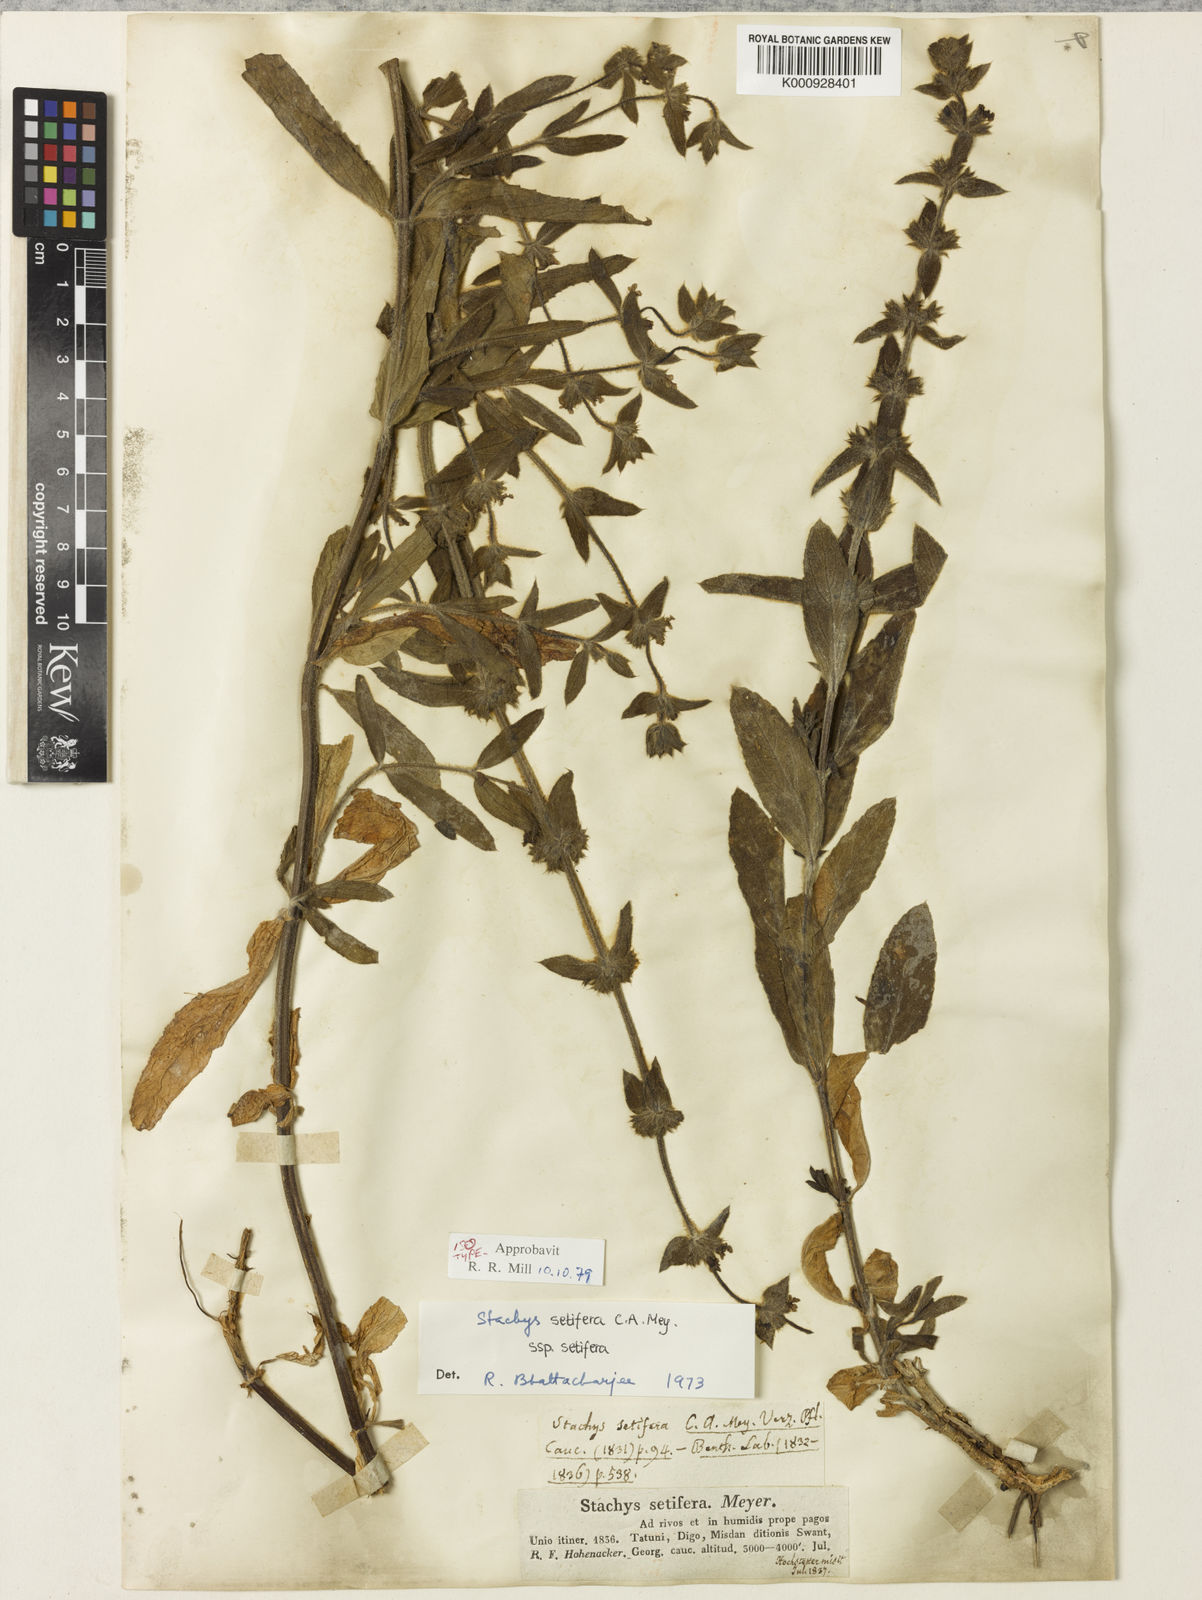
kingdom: Plantae
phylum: Tracheophyta
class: Magnoliopsida
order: Lamiales
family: Lamiaceae
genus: Stachys
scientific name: Stachys setifera
